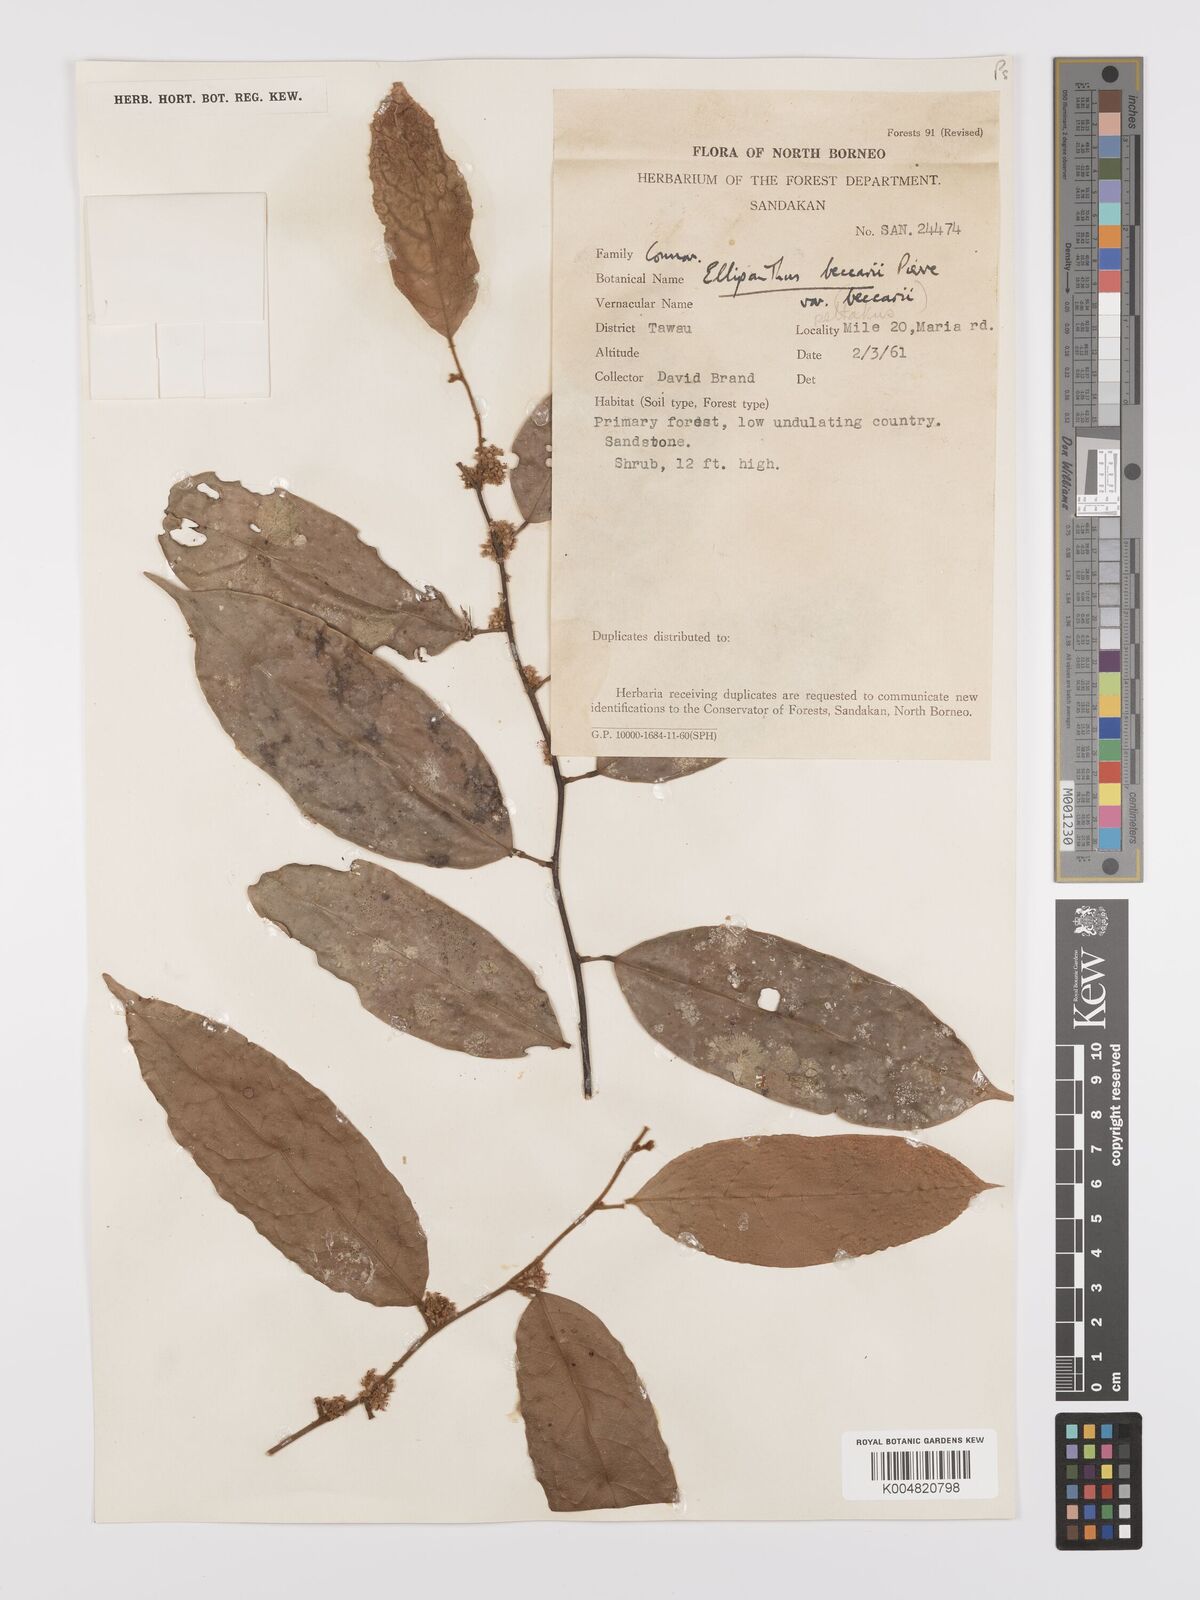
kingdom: Plantae
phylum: Tracheophyta
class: Magnoliopsida
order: Oxalidales
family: Connaraceae
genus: Ellipanthus
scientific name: Ellipanthus beccarii
